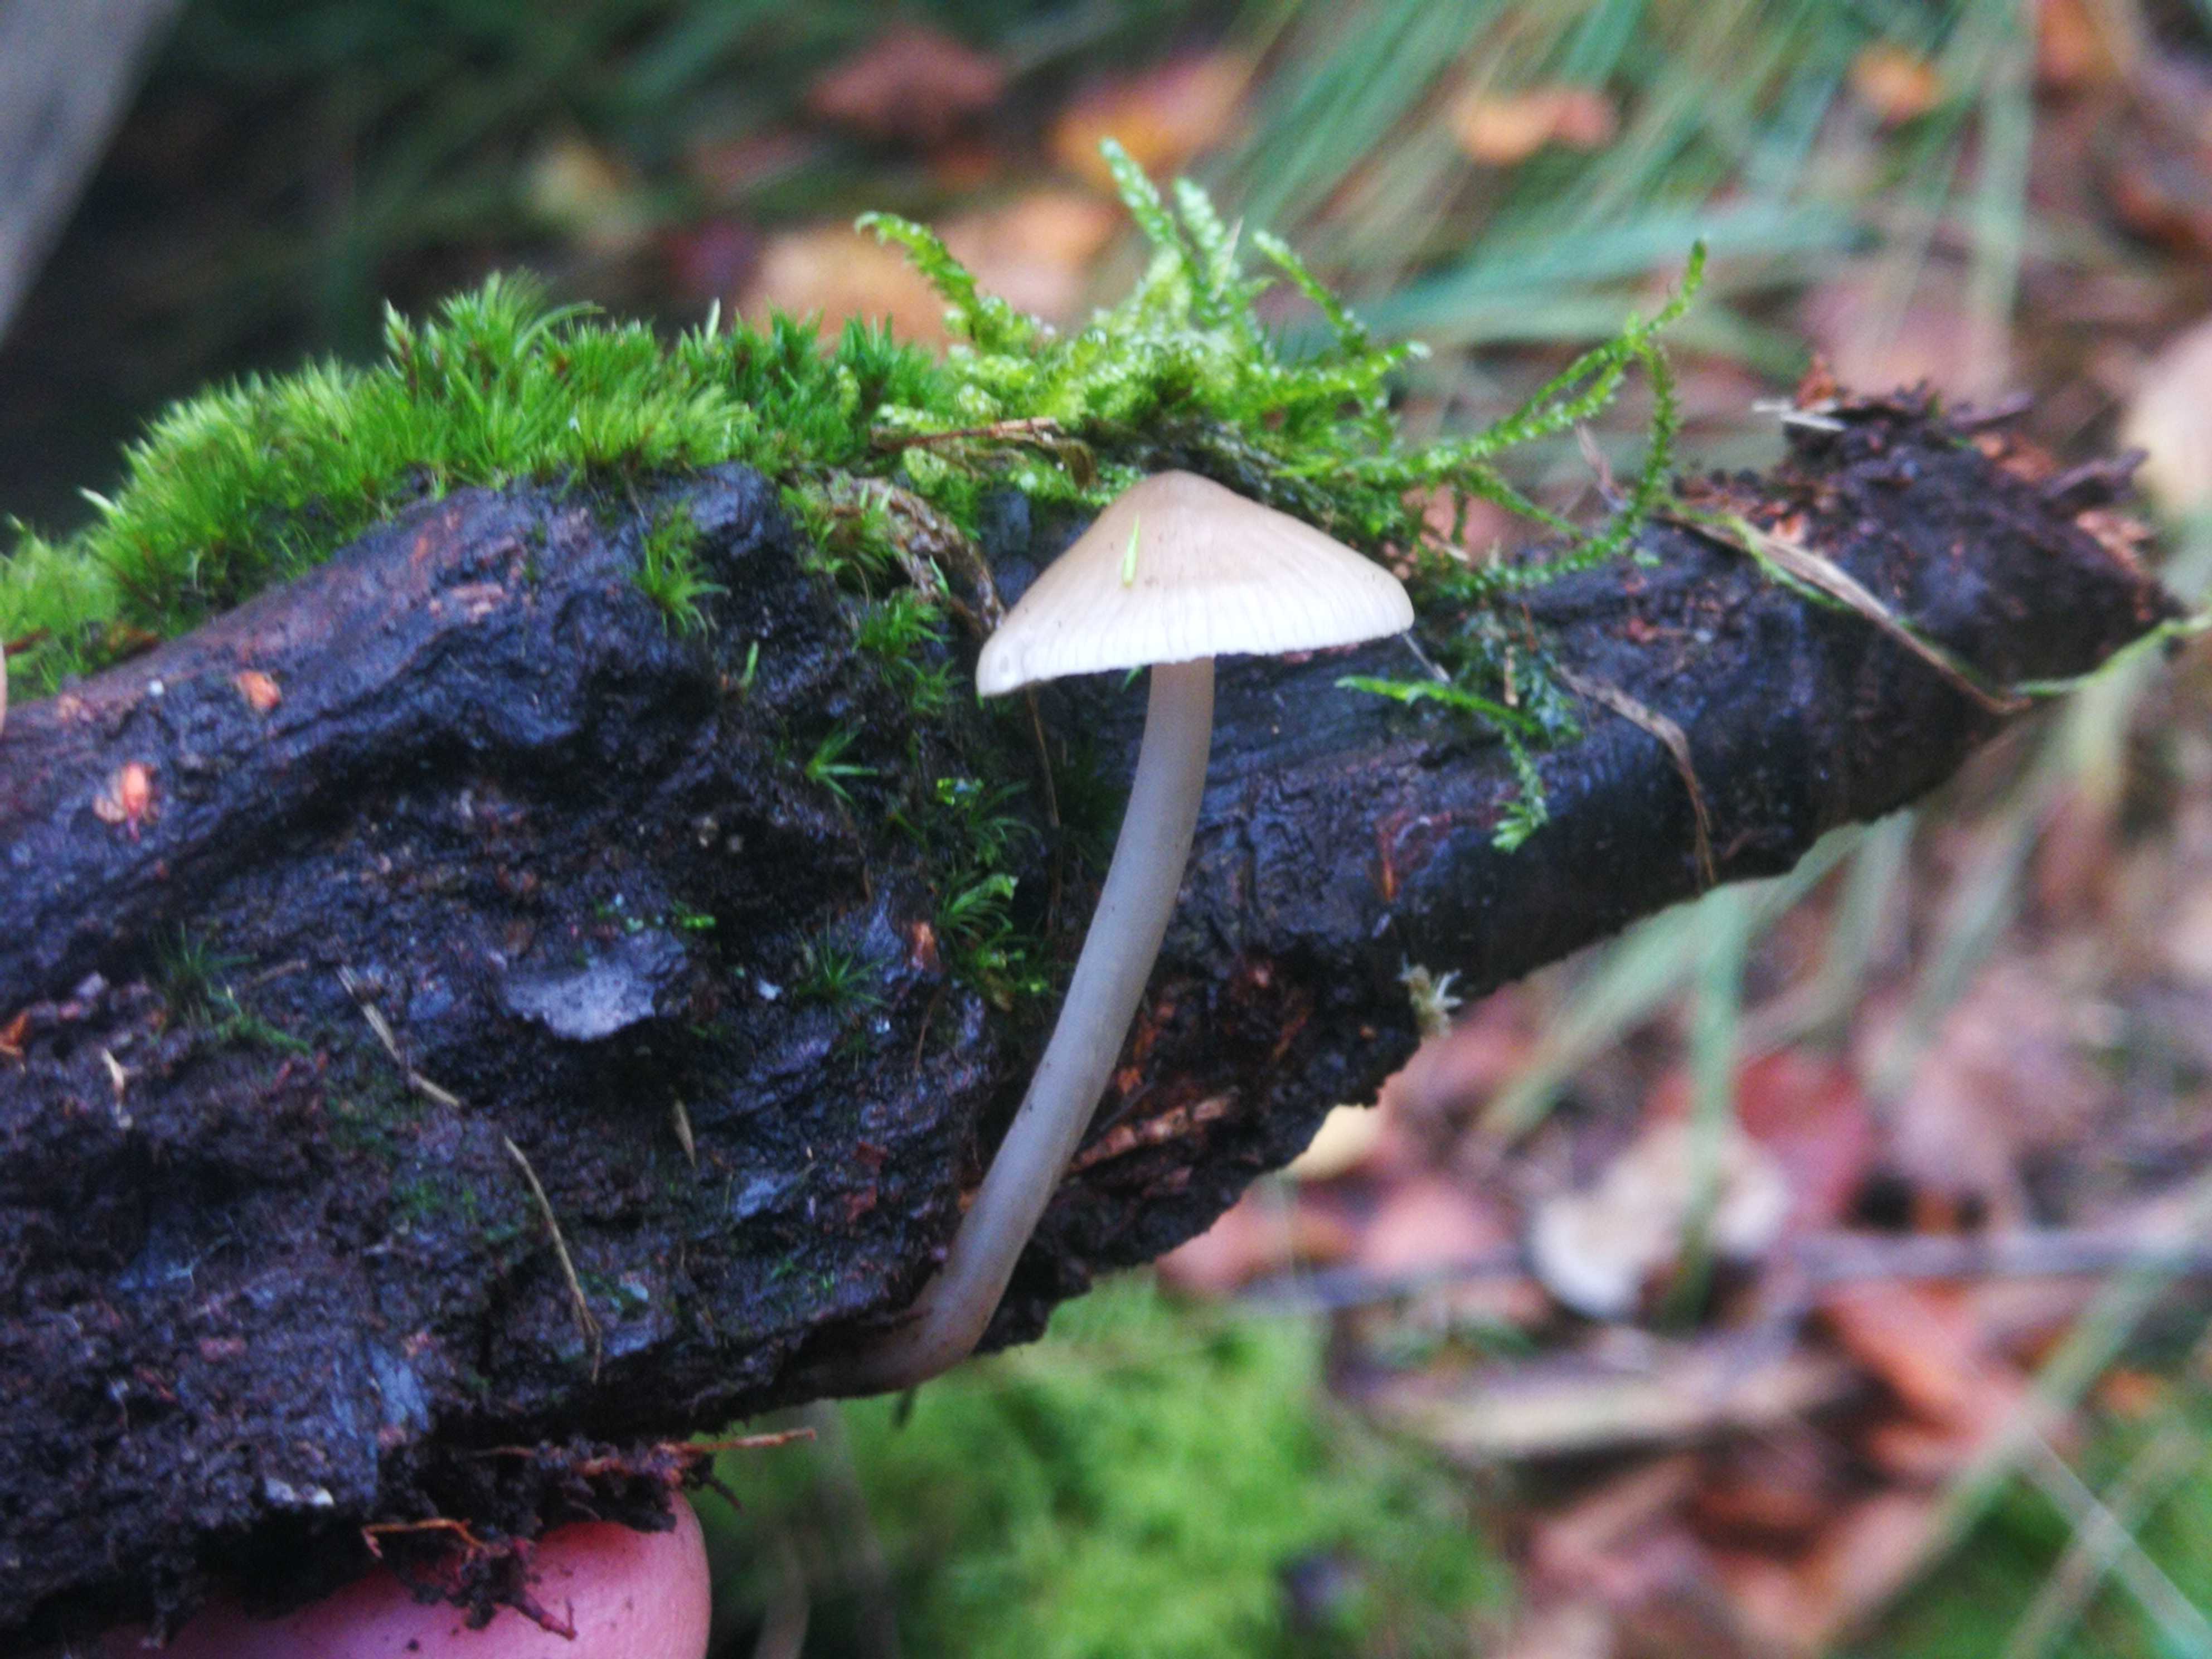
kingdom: Fungi
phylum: Basidiomycota
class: Agaricomycetes
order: Agaricales
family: Mycenaceae
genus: Mycena
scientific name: Mycena galericulata
